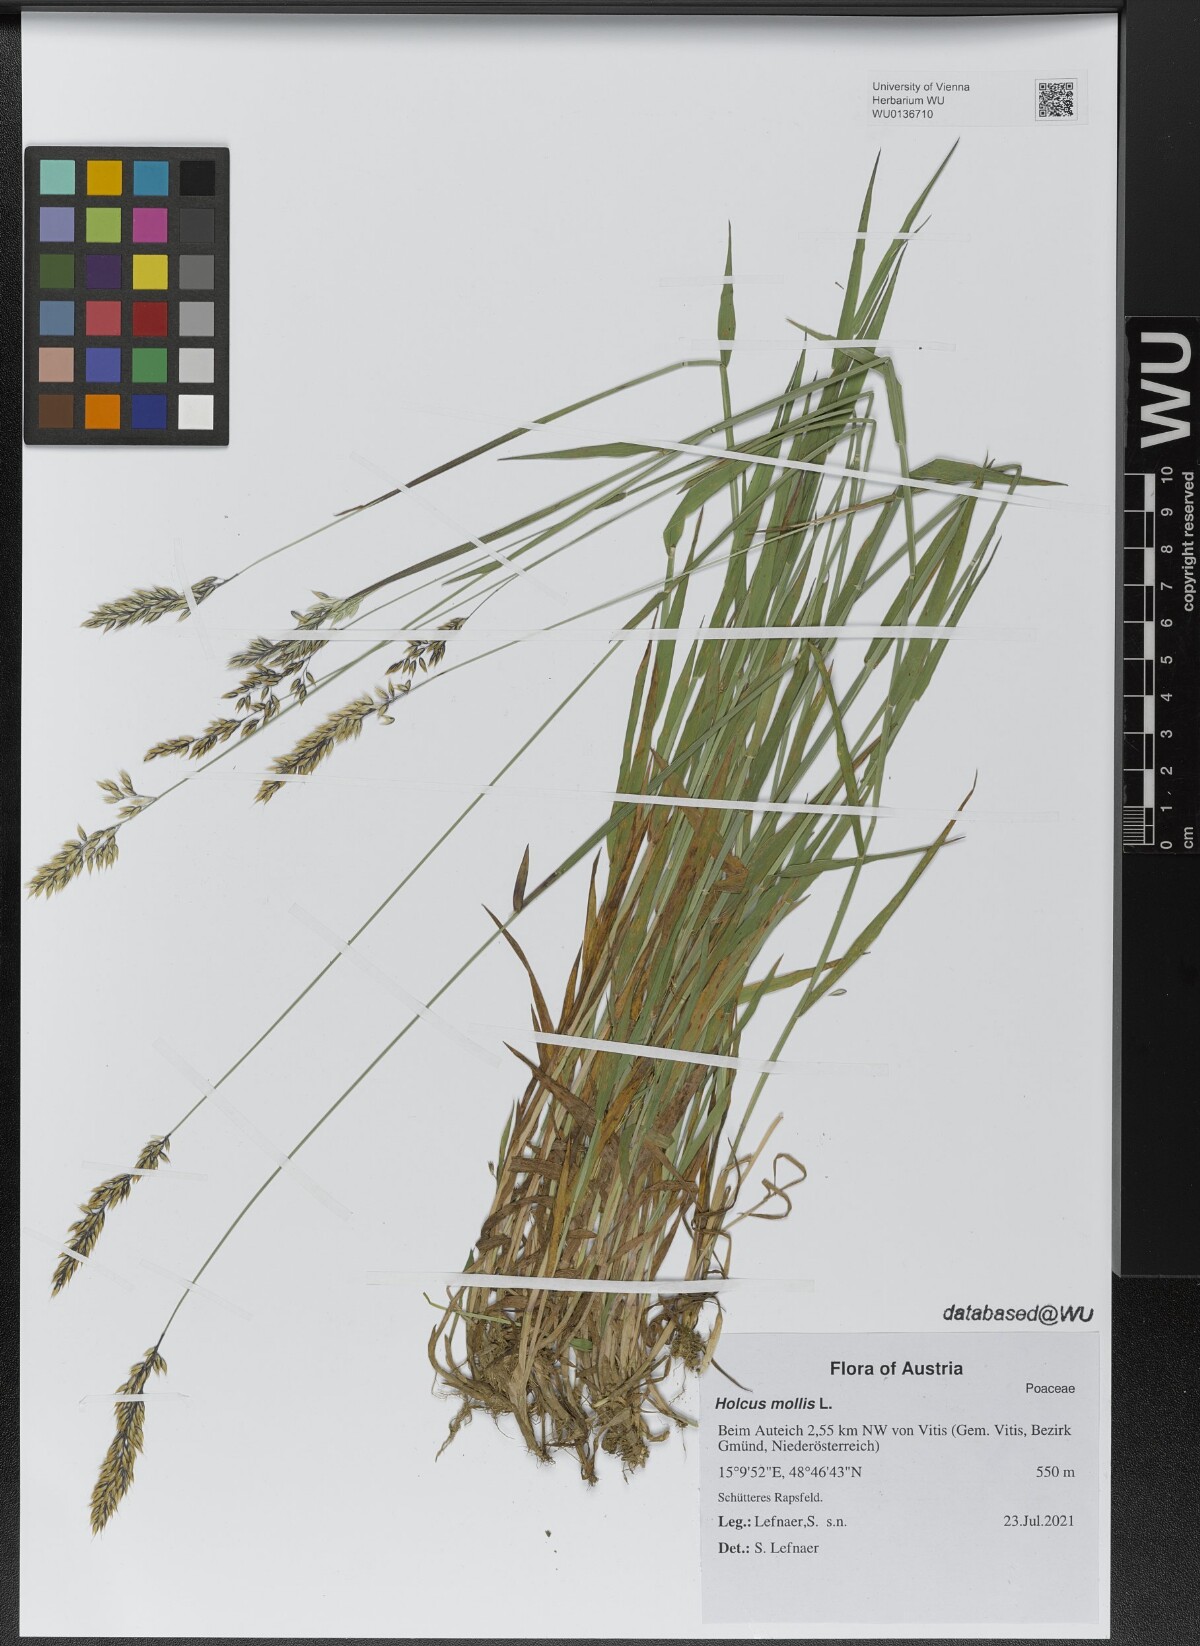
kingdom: Plantae
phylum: Tracheophyta
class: Liliopsida
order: Poales
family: Poaceae
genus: Holcus
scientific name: Holcus mollis
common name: Creeping velvetgrass
